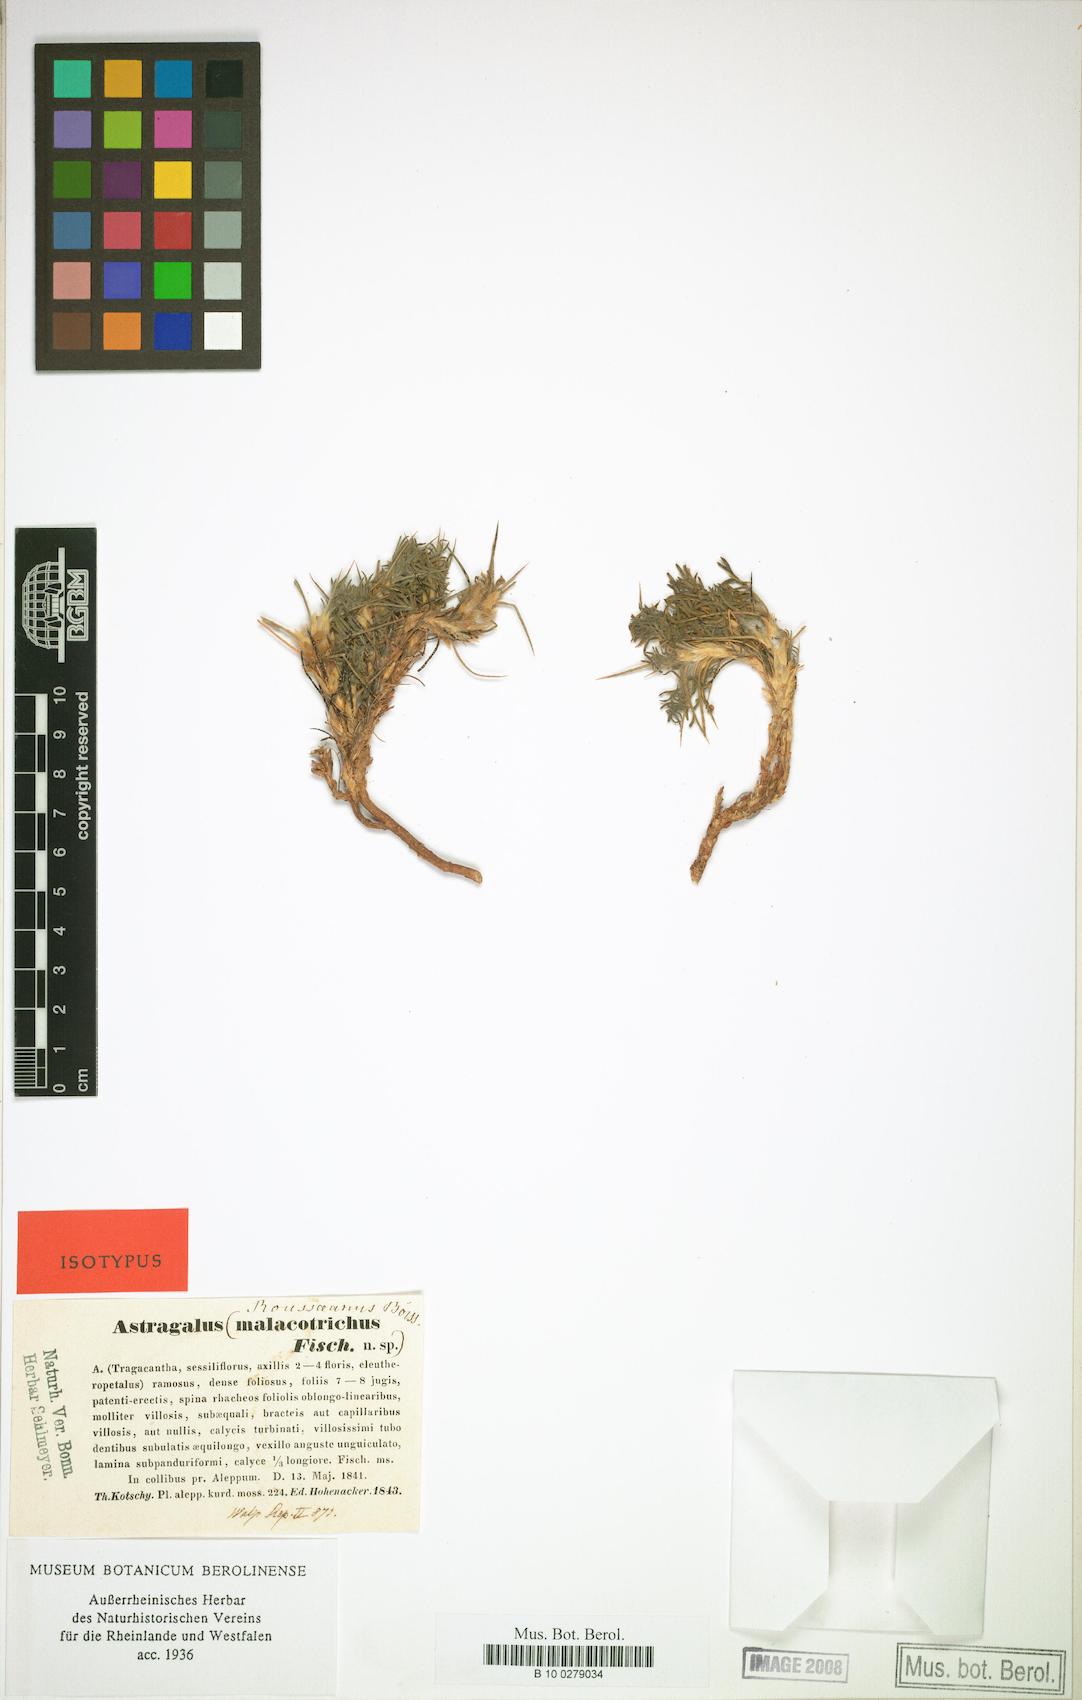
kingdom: Plantae
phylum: Tracheophyta
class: Magnoliopsida
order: Fabales
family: Fabaceae
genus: Astragalus
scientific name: Astragalus rousseanus
